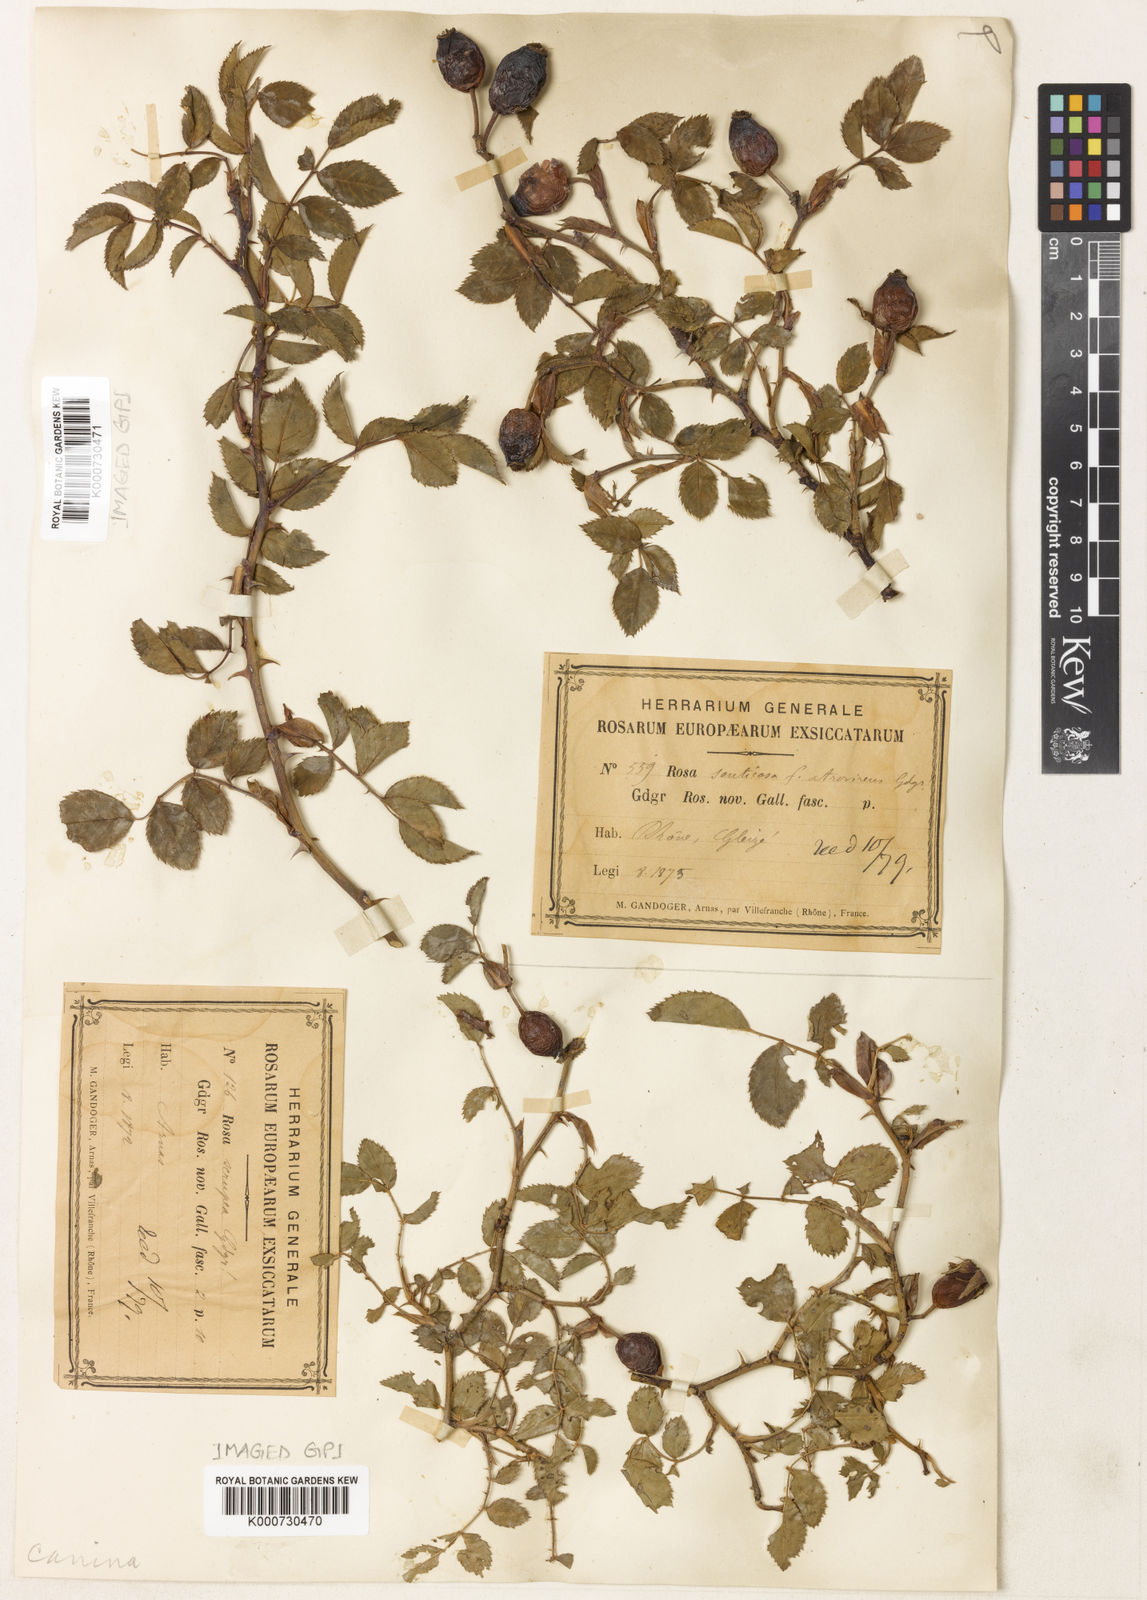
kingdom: Plantae
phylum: Tracheophyta
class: Magnoliopsida
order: Rosales
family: Rosaceae
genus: Rosa
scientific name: Rosa canina
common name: Dog rose
